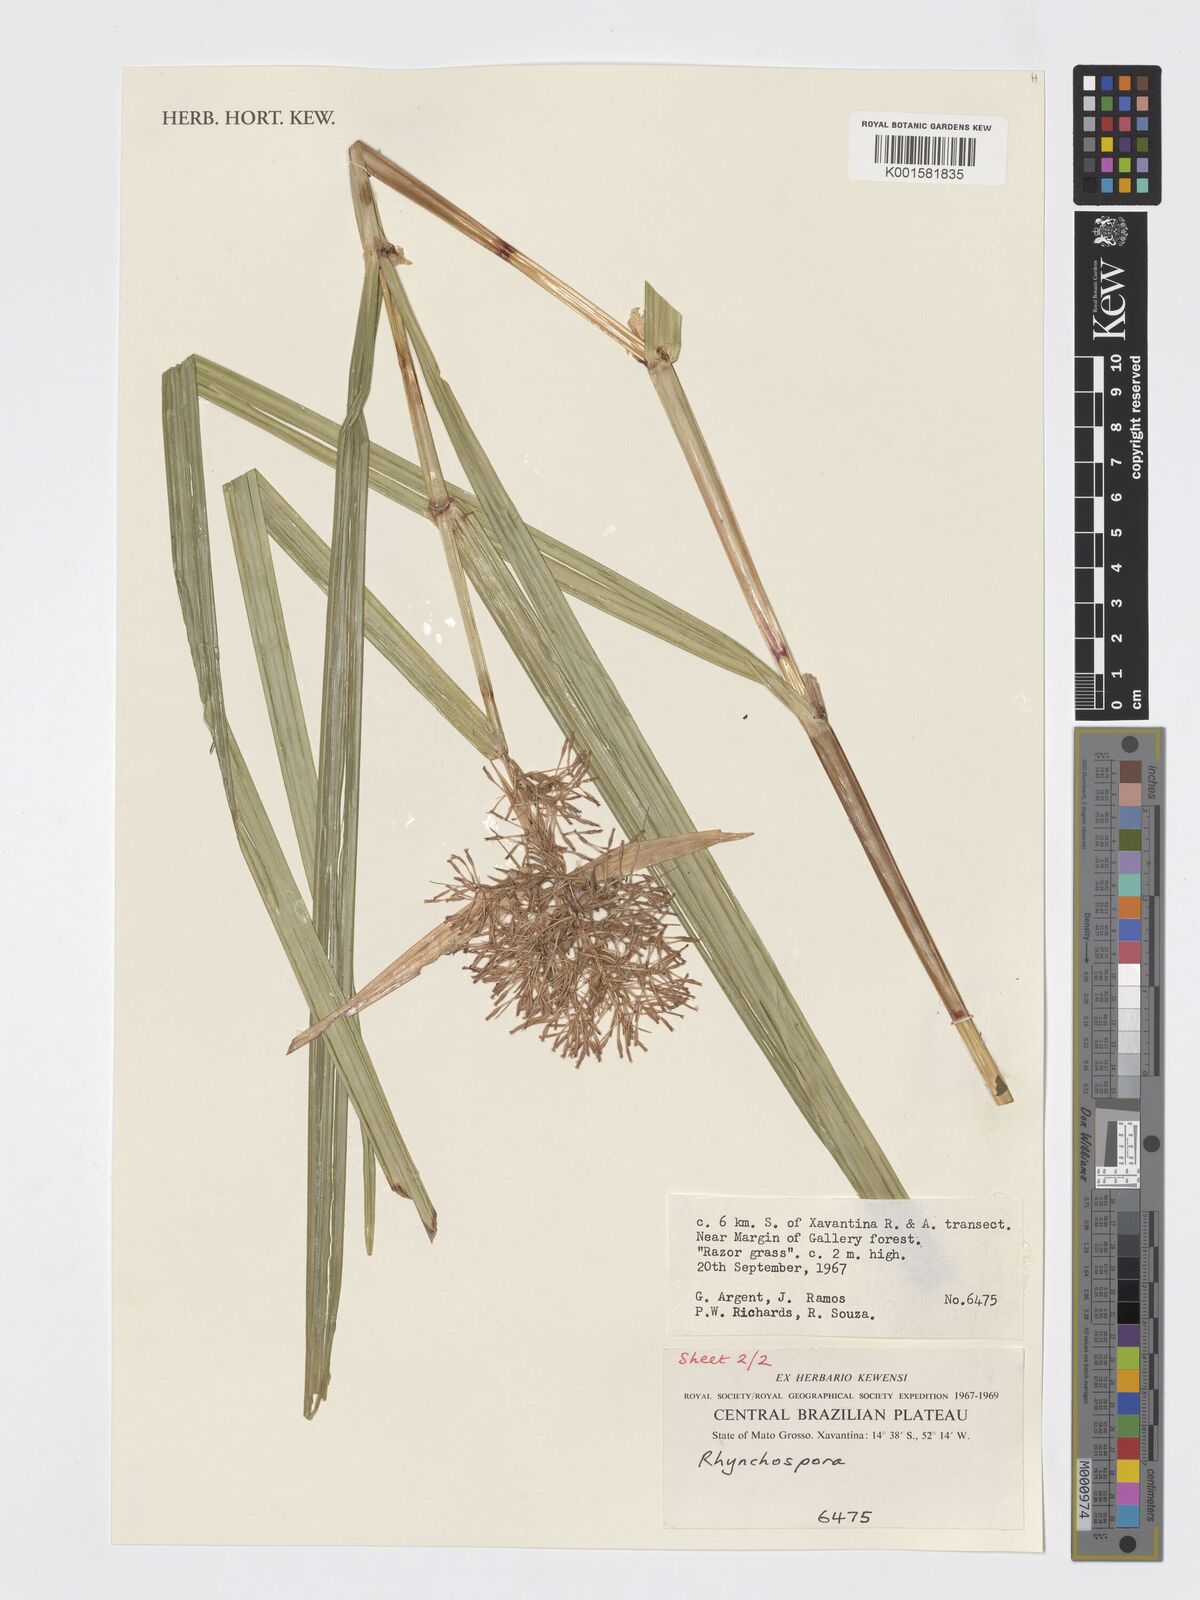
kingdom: Plantae
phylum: Tracheophyta
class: Liliopsida
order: Poales
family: Cyperaceae
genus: Rhynchospora
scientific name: Rhynchospora
